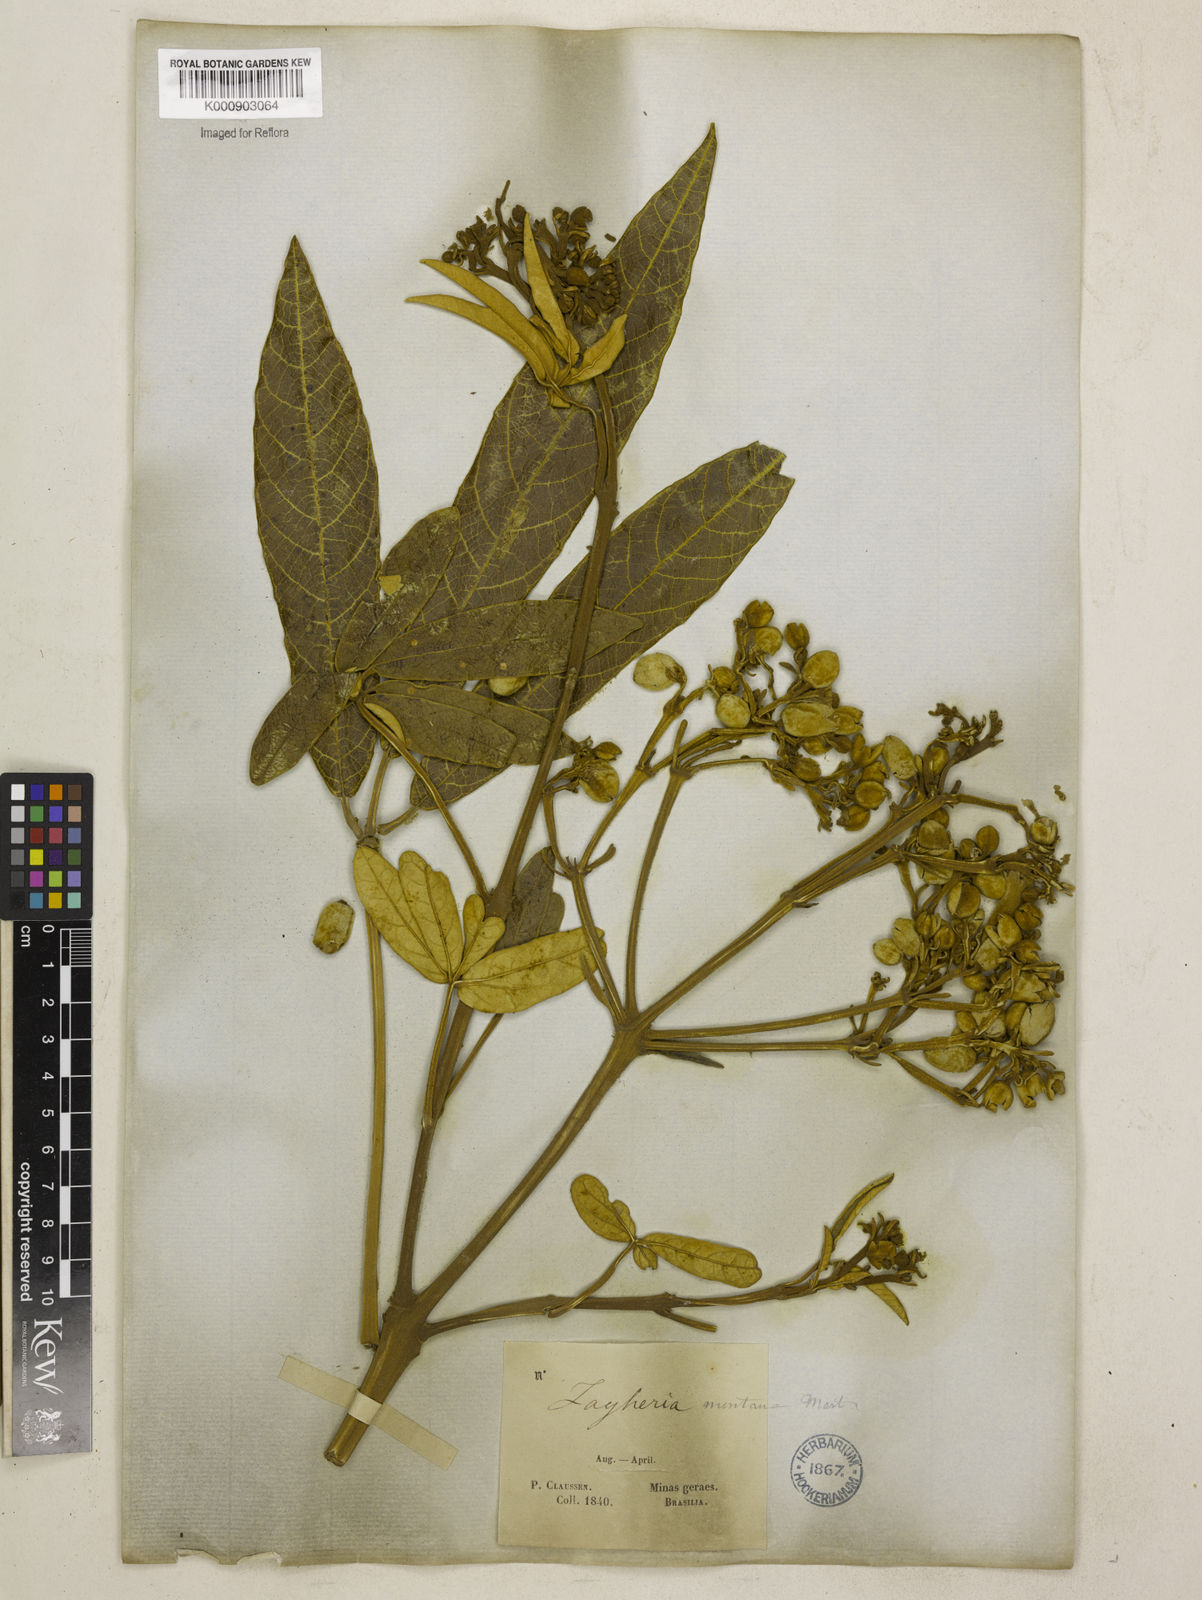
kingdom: Plantae
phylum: Tracheophyta
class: Magnoliopsida
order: Lamiales
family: Bignoniaceae
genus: Zeyheria
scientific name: Zeyheria
